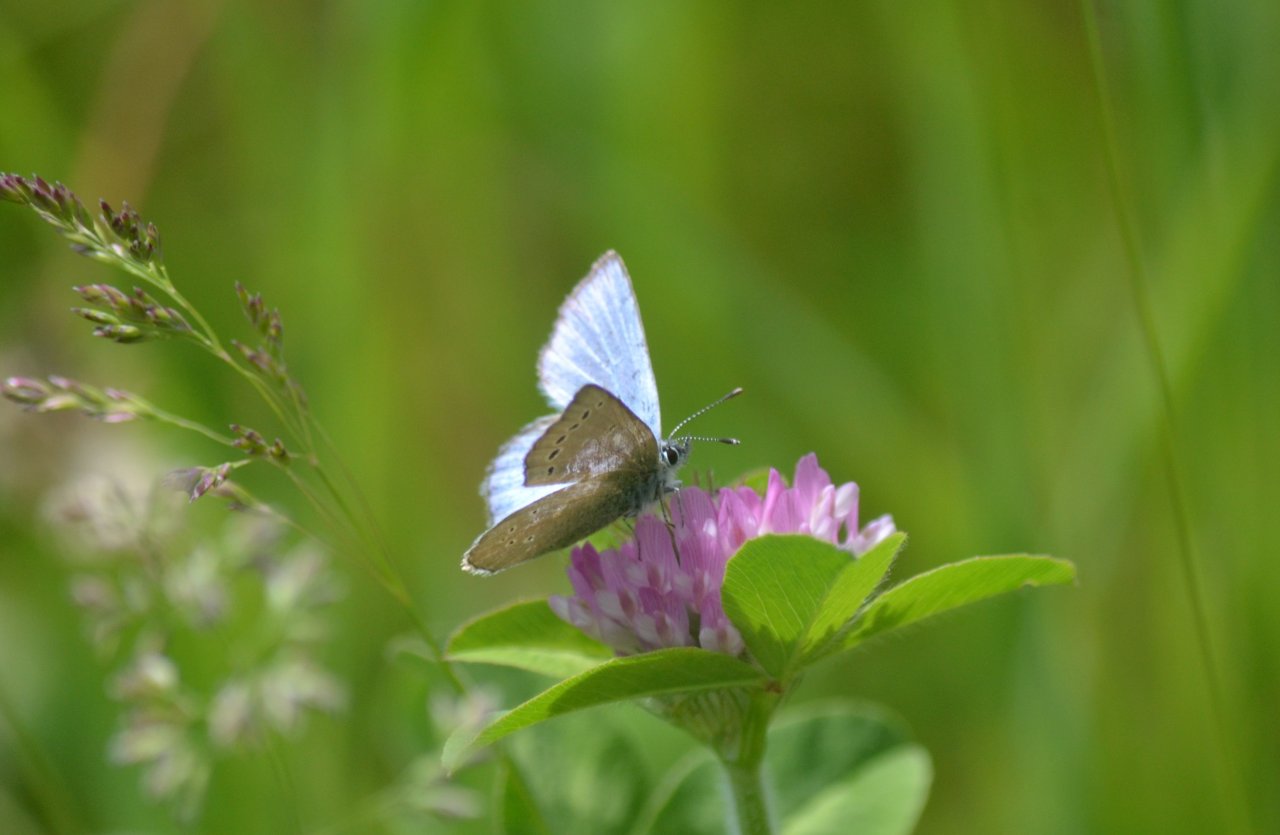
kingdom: Animalia
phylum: Arthropoda
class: Insecta
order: Lepidoptera
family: Lycaenidae
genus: Glaucopsyche
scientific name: Glaucopsyche lygdamus
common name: Silvery Blue
